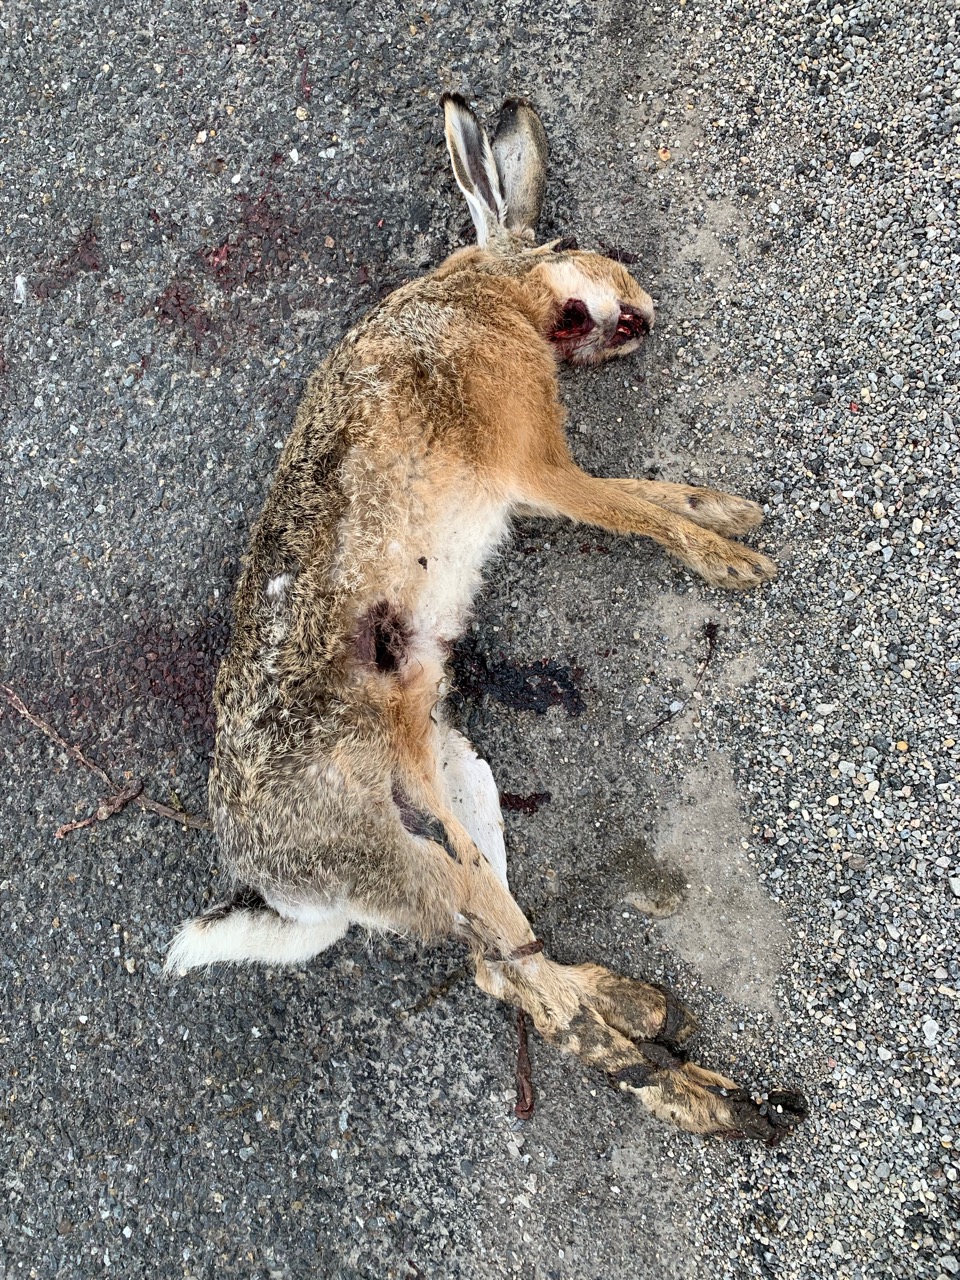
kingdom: Animalia
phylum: Chordata
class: Mammalia
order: Lagomorpha
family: Leporidae
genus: Lepus
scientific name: Lepus europaeus
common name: European hare
